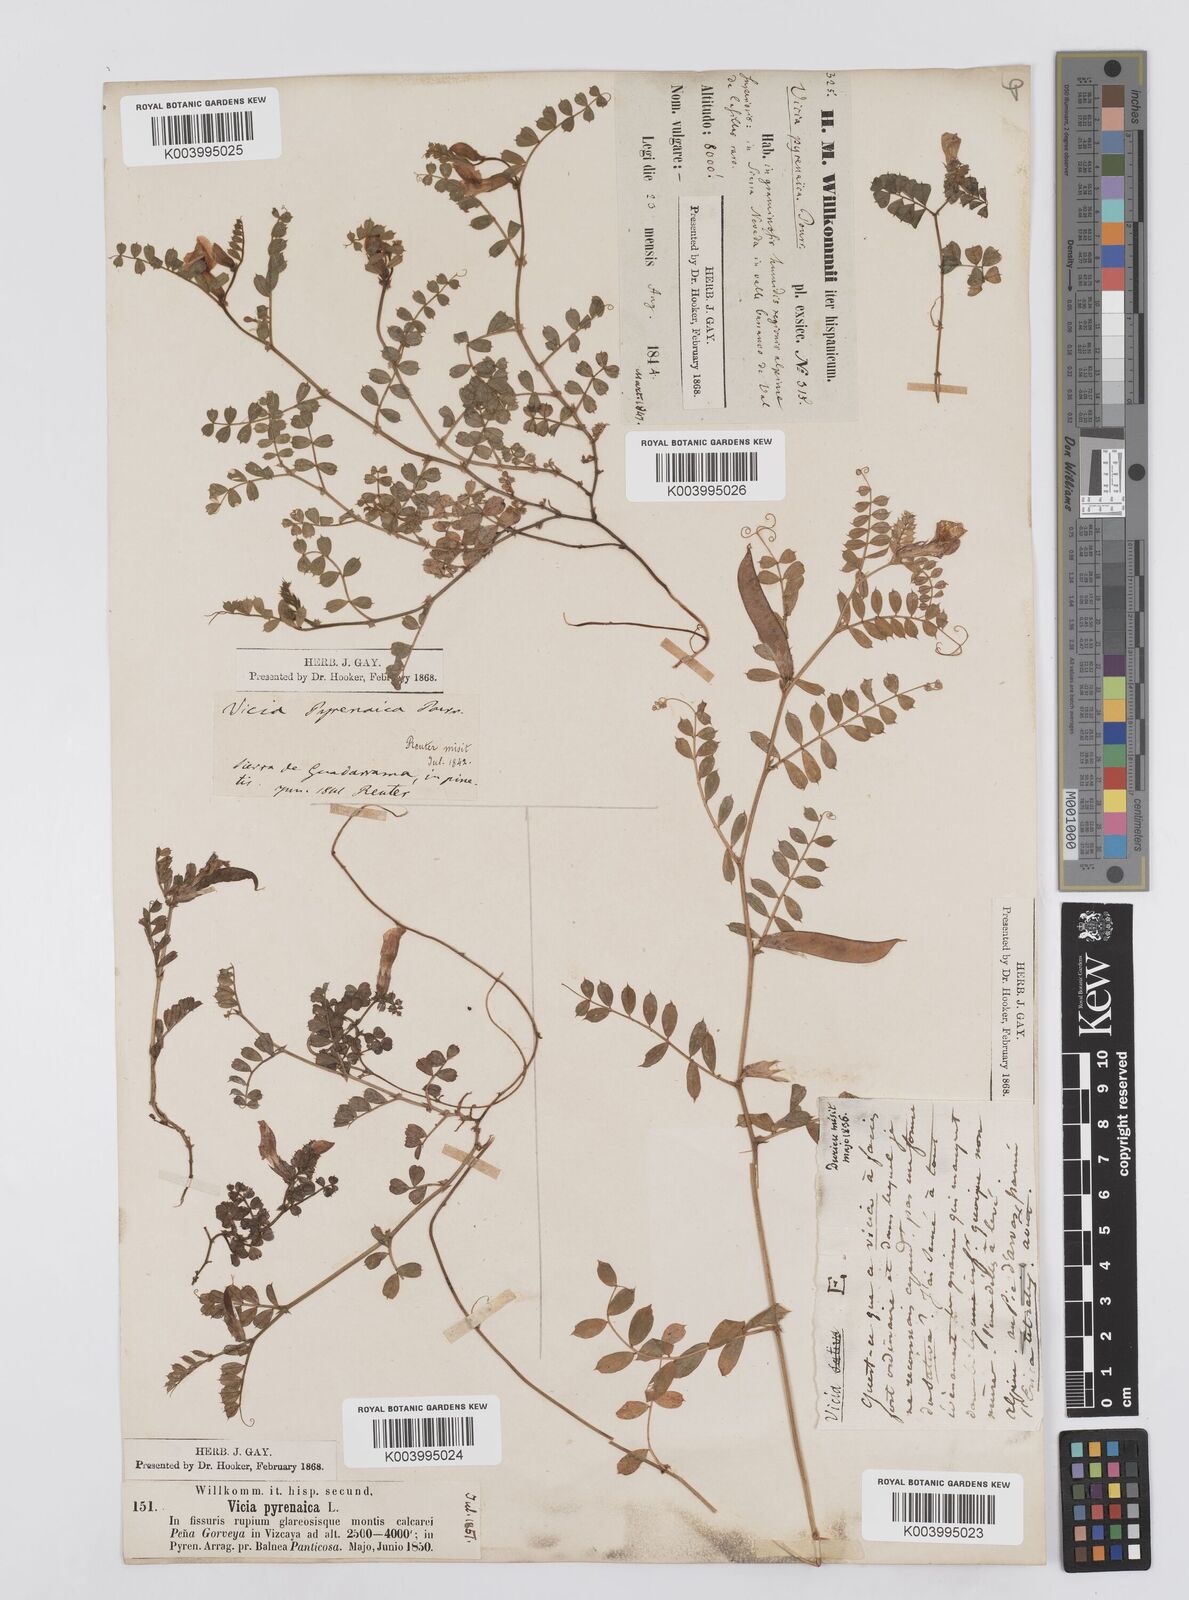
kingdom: Plantae
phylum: Tracheophyta
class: Magnoliopsida
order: Fabales
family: Fabaceae
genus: Vicia
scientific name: Vicia pyrenaica
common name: Pyrenean vetch
